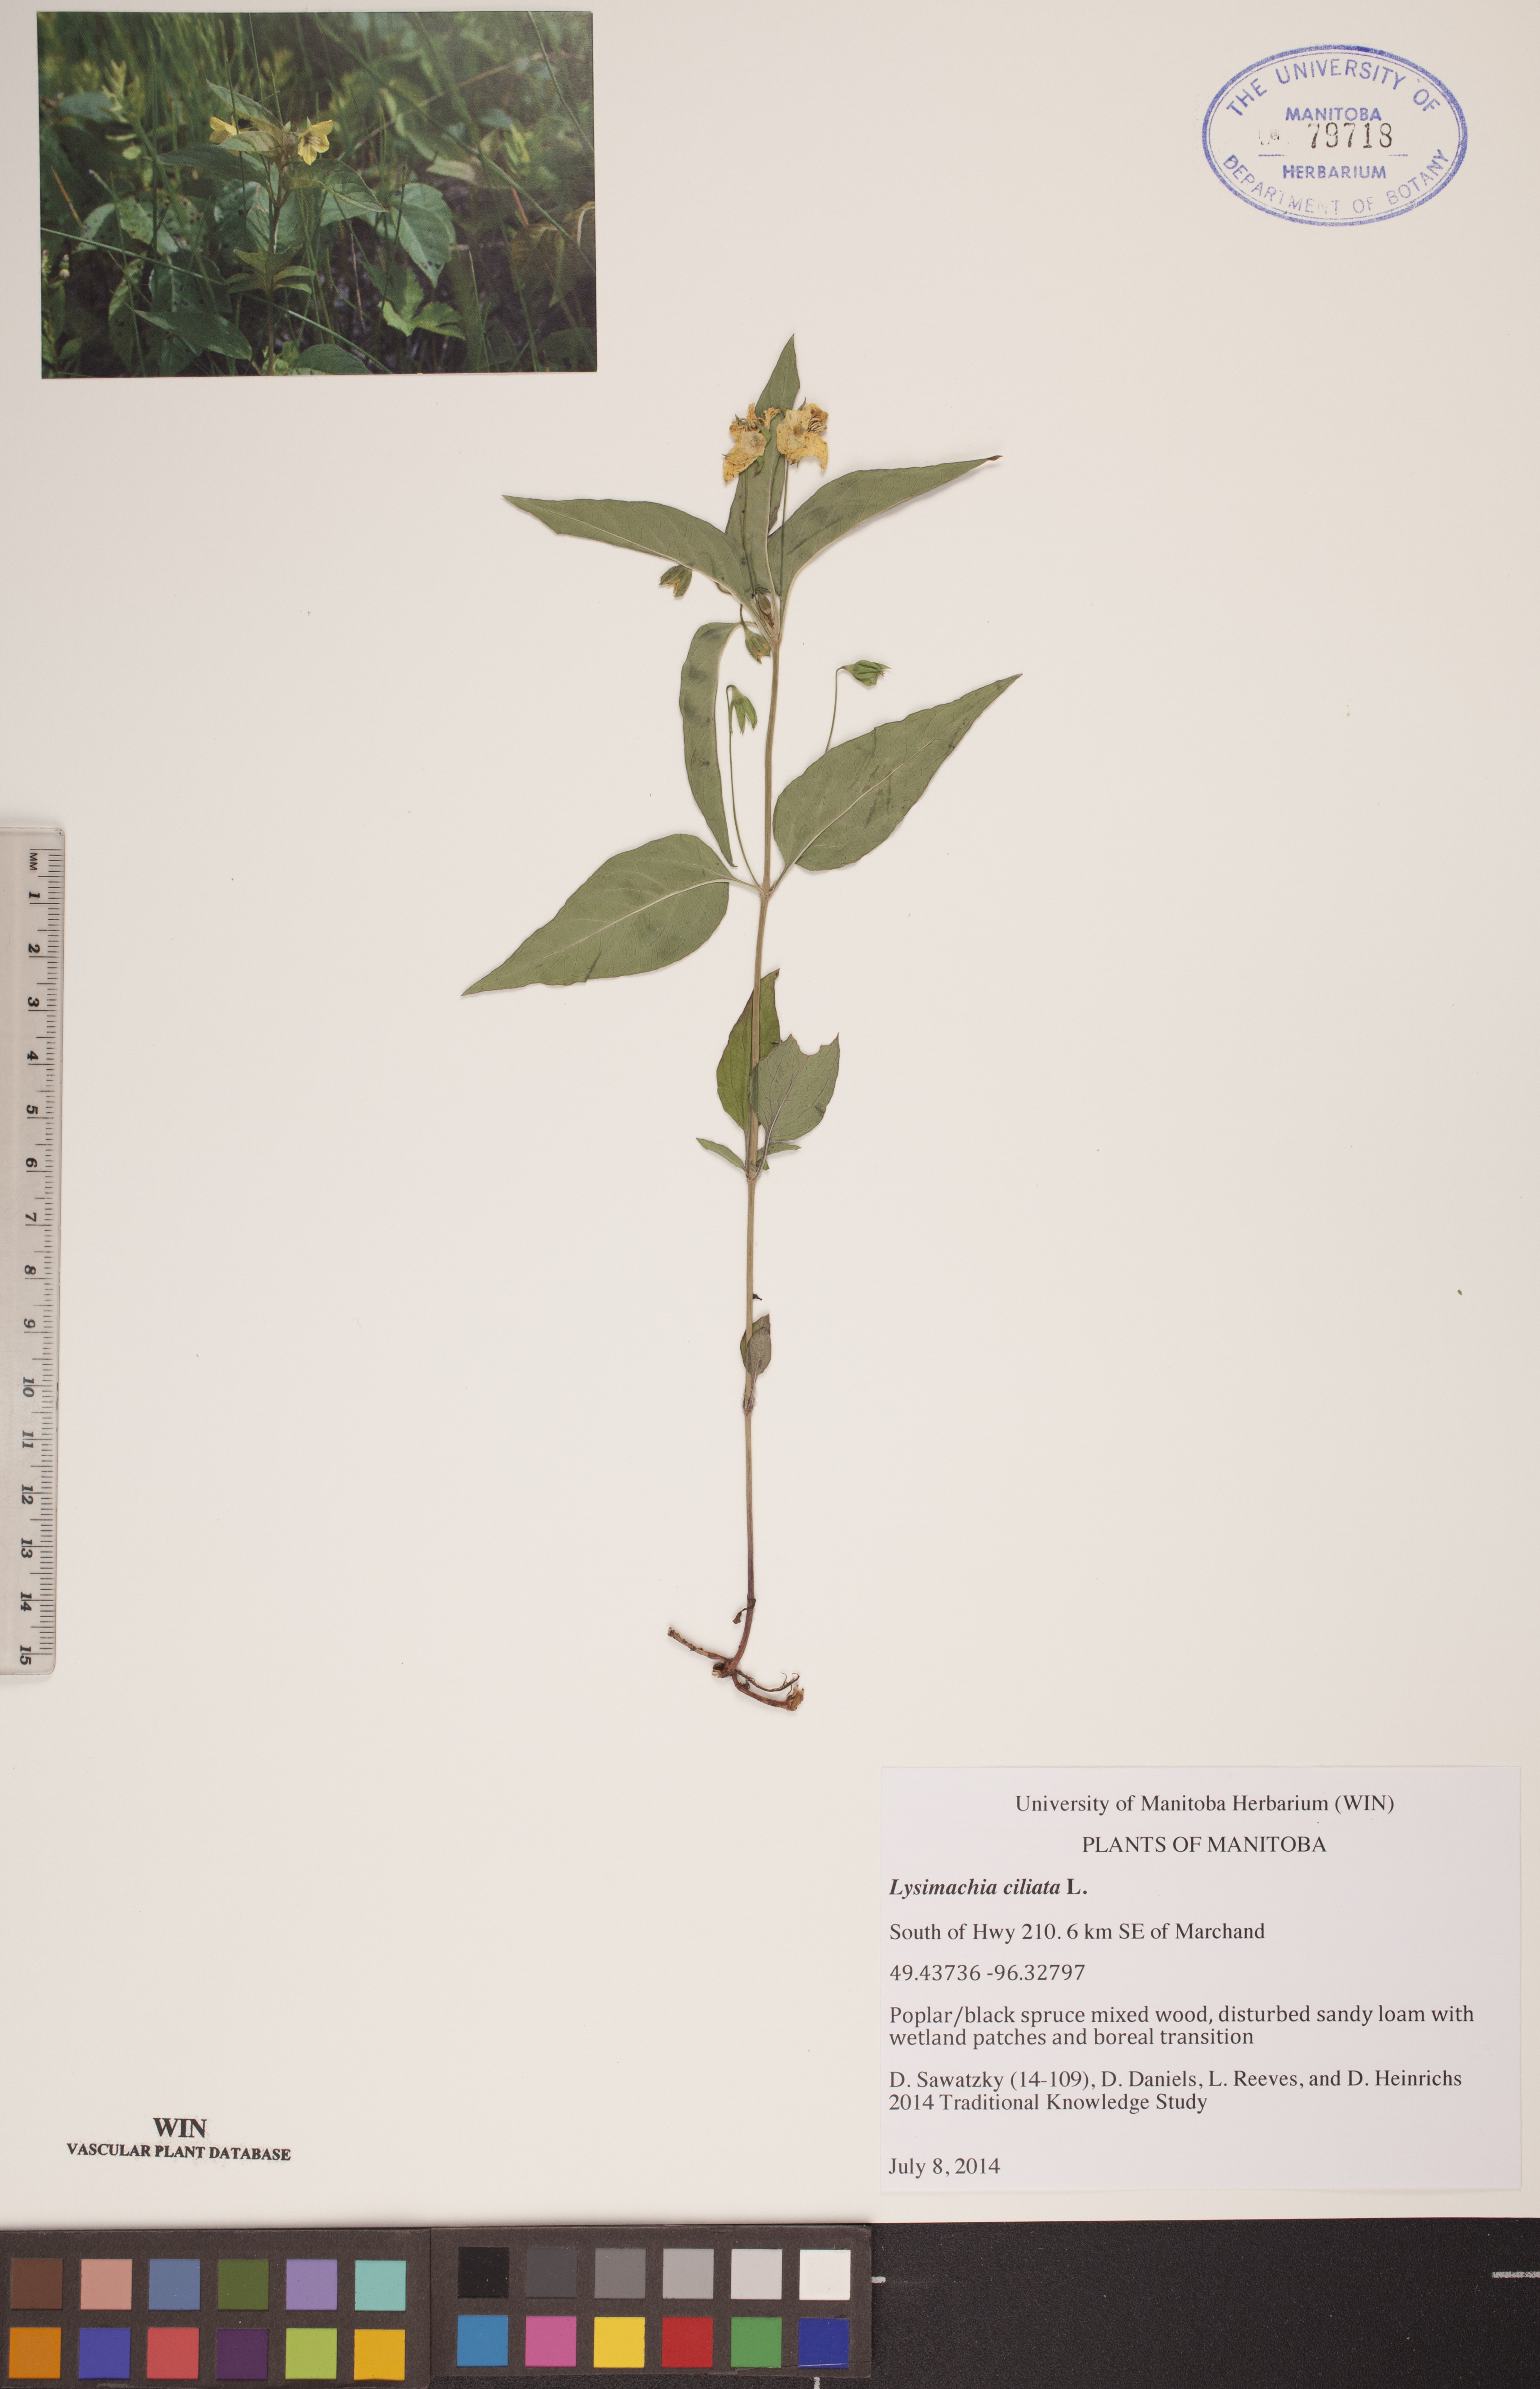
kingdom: Plantae
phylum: Tracheophyta
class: Magnoliopsida
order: Ericales
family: Primulaceae
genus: Lysimachia
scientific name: Lysimachia ciliata
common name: Fringed loosestrife
